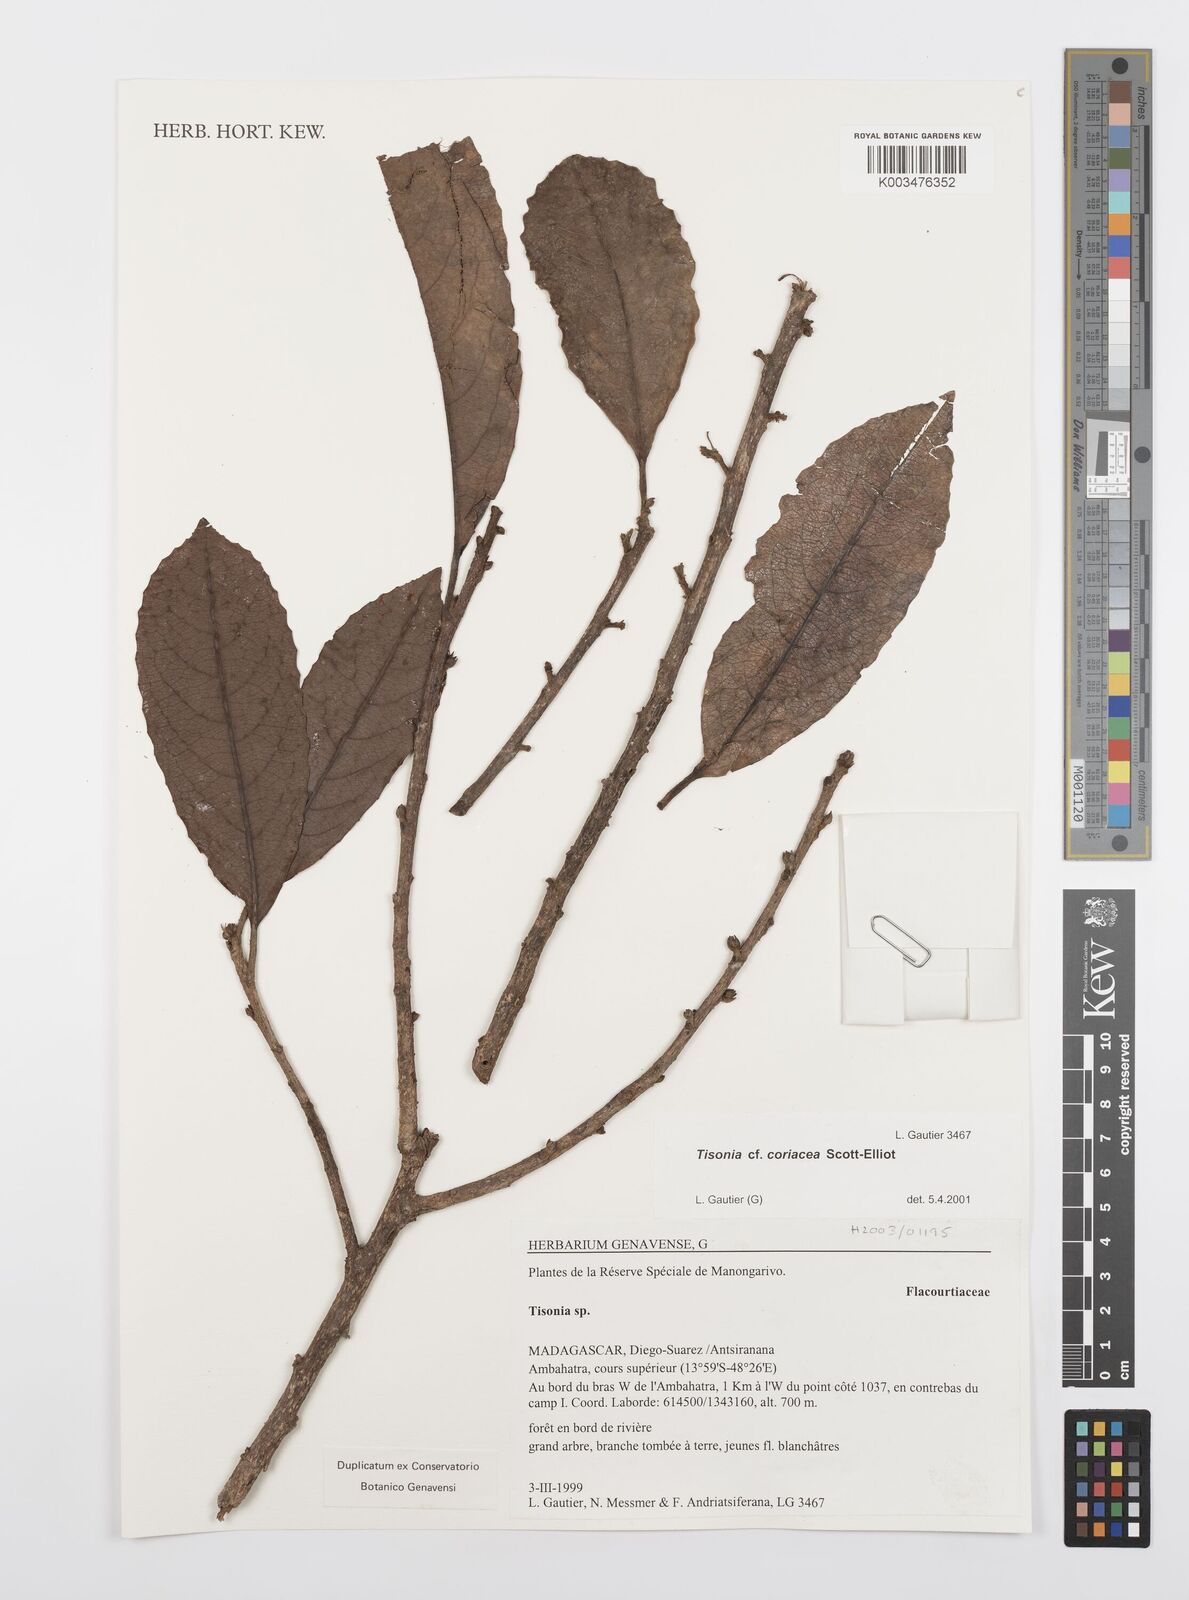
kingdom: Plantae
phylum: Tracheophyta
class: Magnoliopsida
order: Malpighiales
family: Salicaceae
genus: Tisonia
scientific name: Tisonia coriacea
